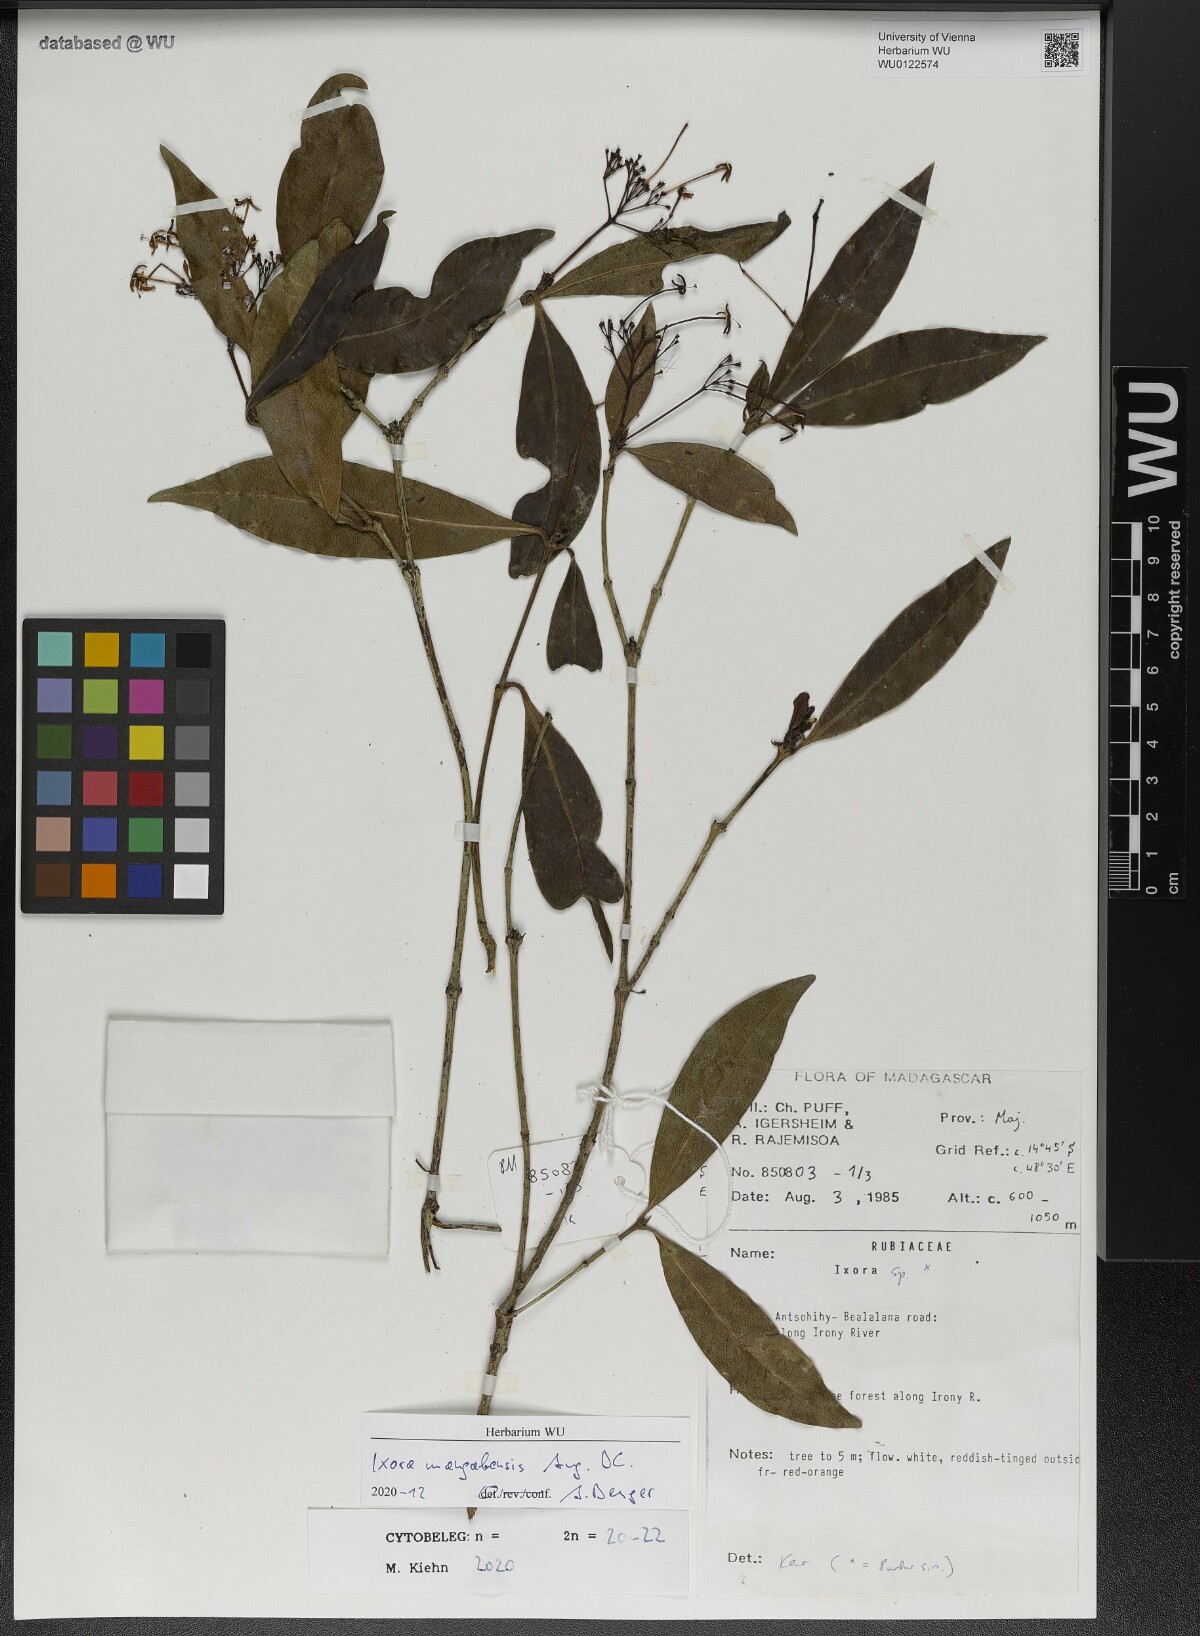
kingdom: Plantae
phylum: Tracheophyta
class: Magnoliopsida
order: Gentianales
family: Rubiaceae
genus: Ixora
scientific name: Ixora mangabensis
